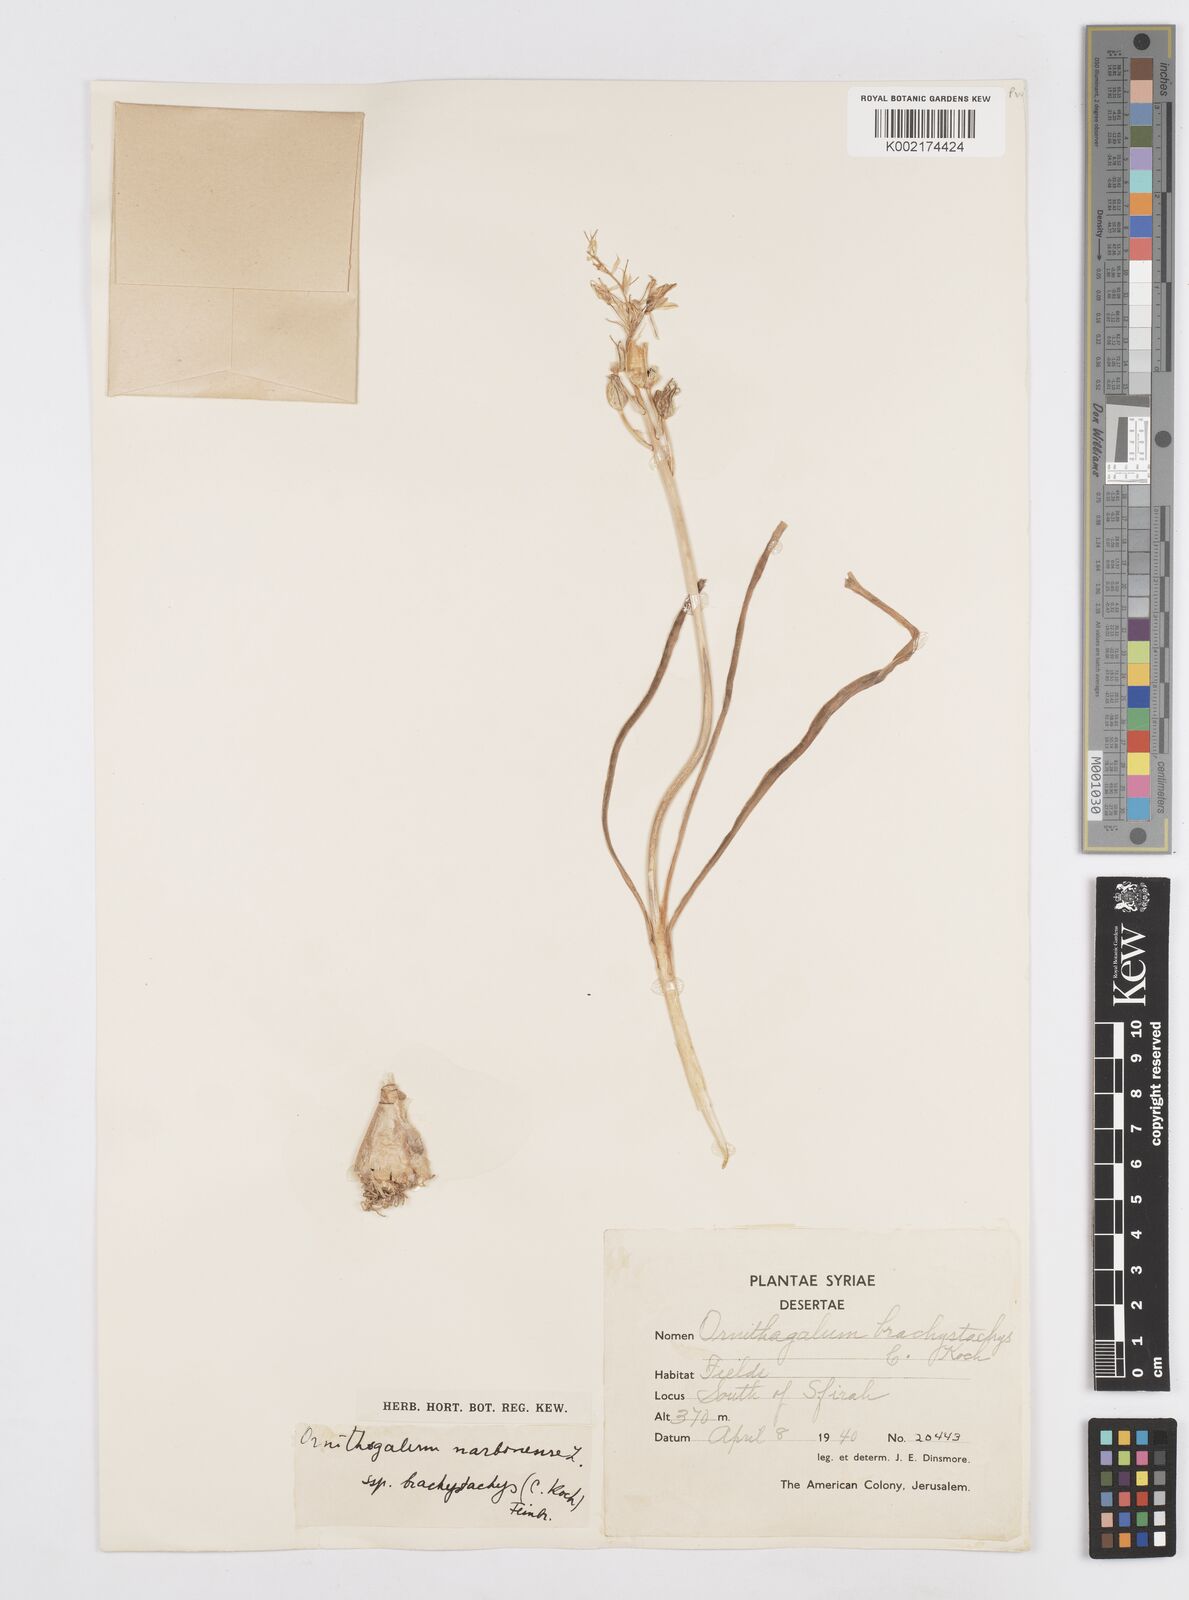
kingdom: Plantae
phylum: Tracheophyta
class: Liliopsida
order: Asparagales
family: Asparagaceae
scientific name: Asparagaceae
